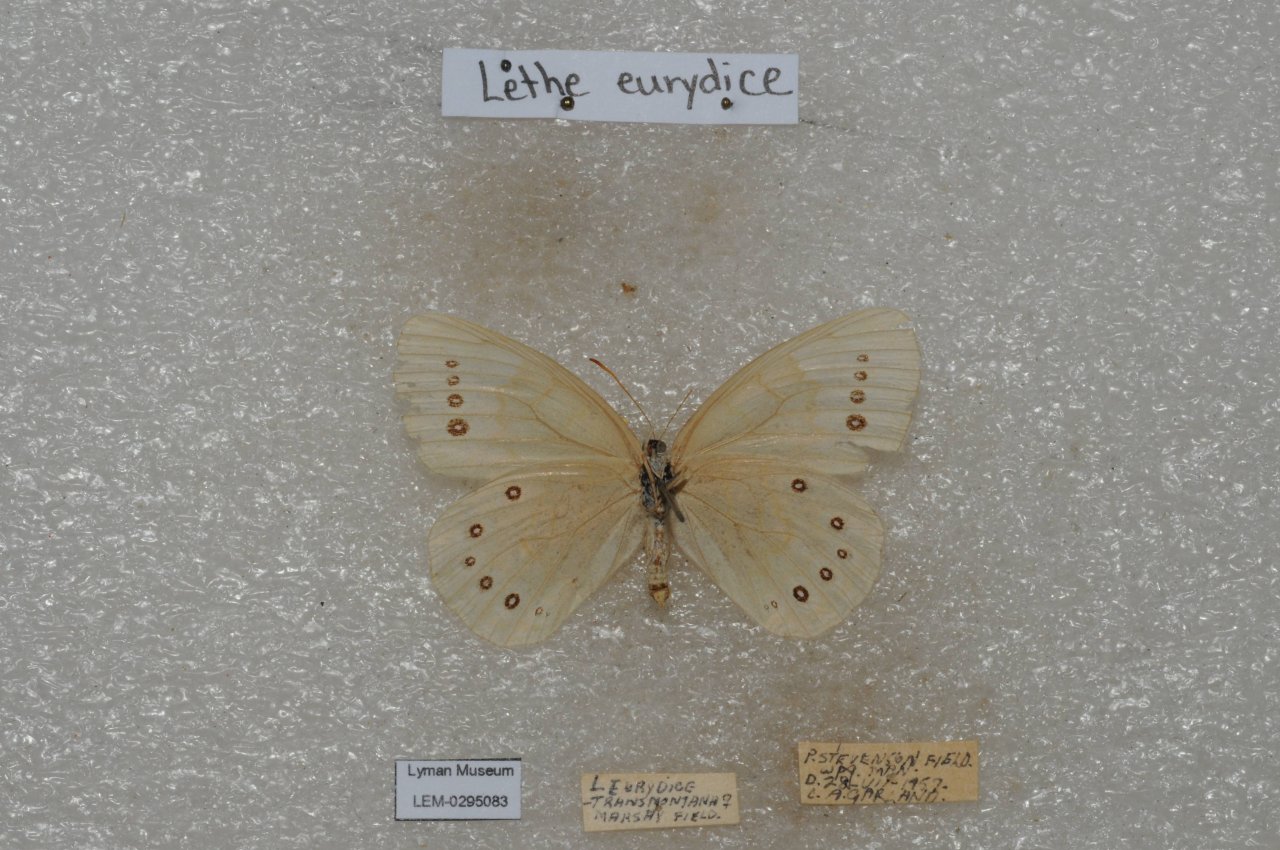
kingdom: Animalia
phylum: Arthropoda
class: Insecta
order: Lepidoptera
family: Nymphalidae
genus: Lethe
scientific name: Lethe eurydice
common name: Eyed Brown
